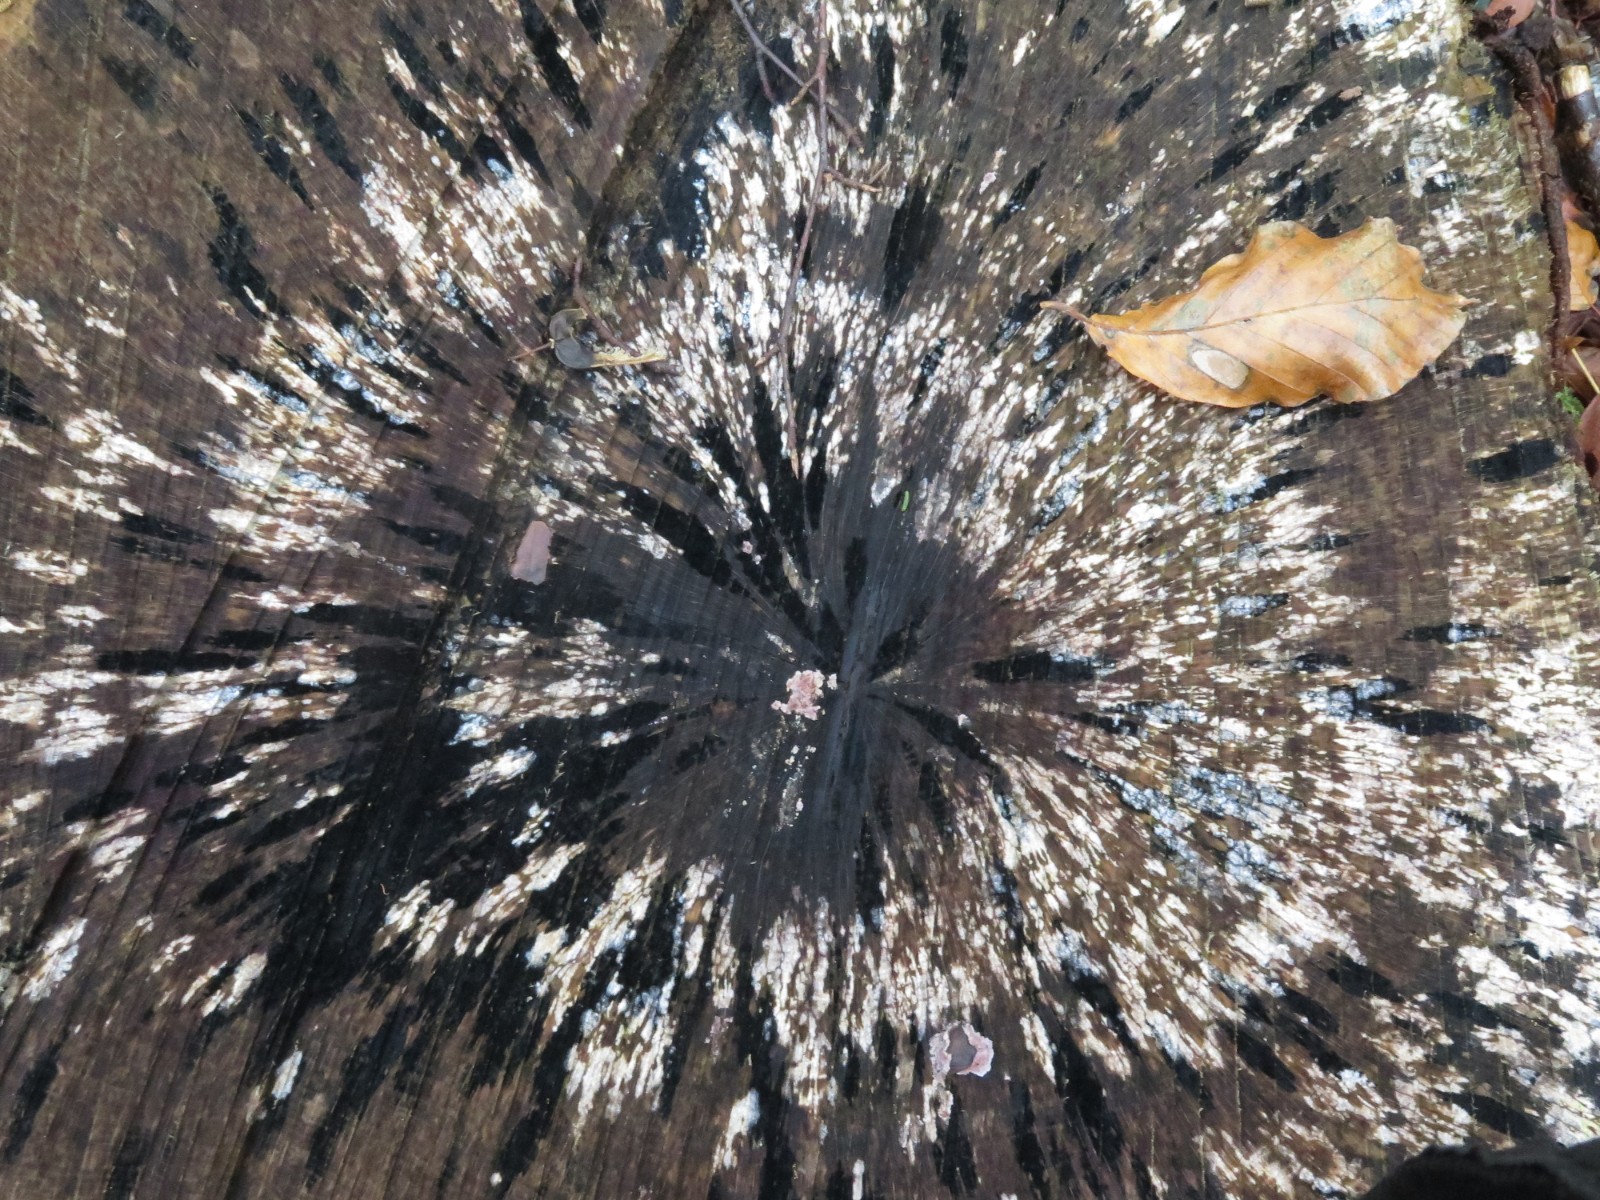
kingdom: Fungi
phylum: Ascomycota
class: Leotiomycetes
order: Helotiales
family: Helotiaceae
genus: Bispora
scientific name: Bispora pallescens
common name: måtte-snitskive
